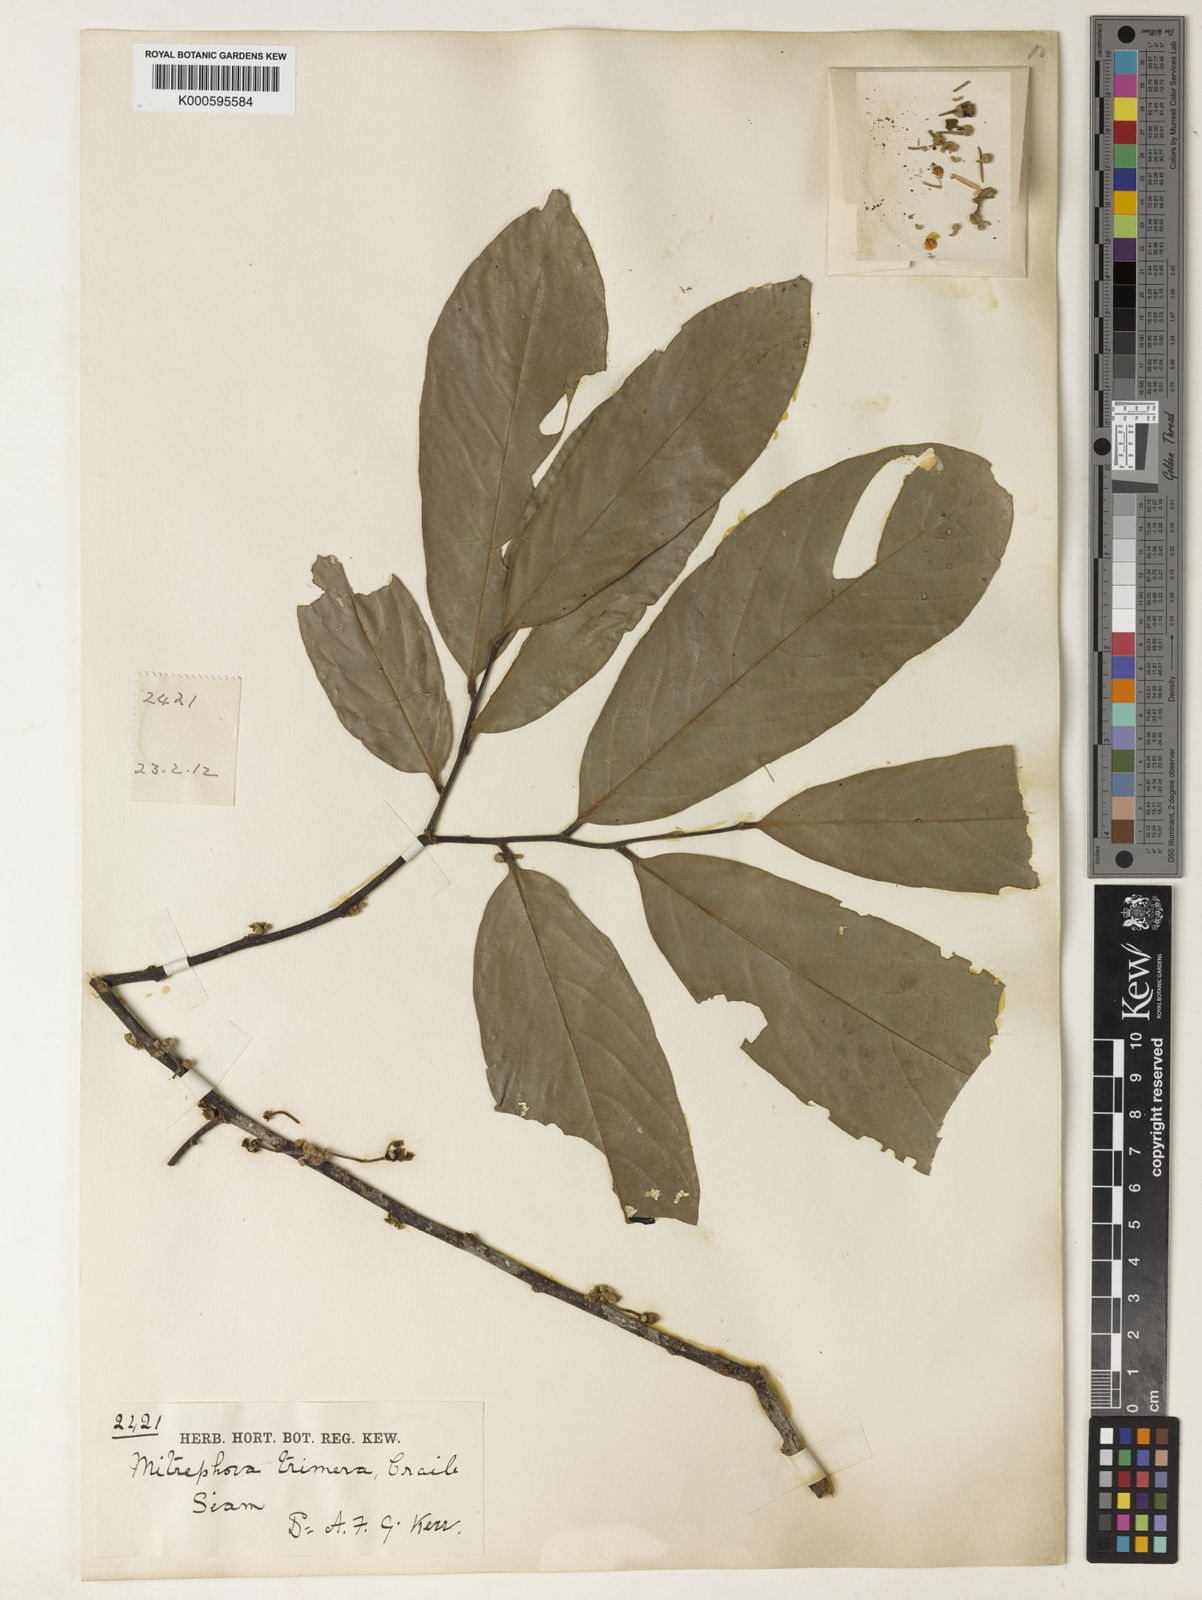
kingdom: Plantae
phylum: Tracheophyta
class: Magnoliopsida
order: Magnoliales
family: Annonaceae
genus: Pseuduvaria
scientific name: Pseuduvaria rugosa
